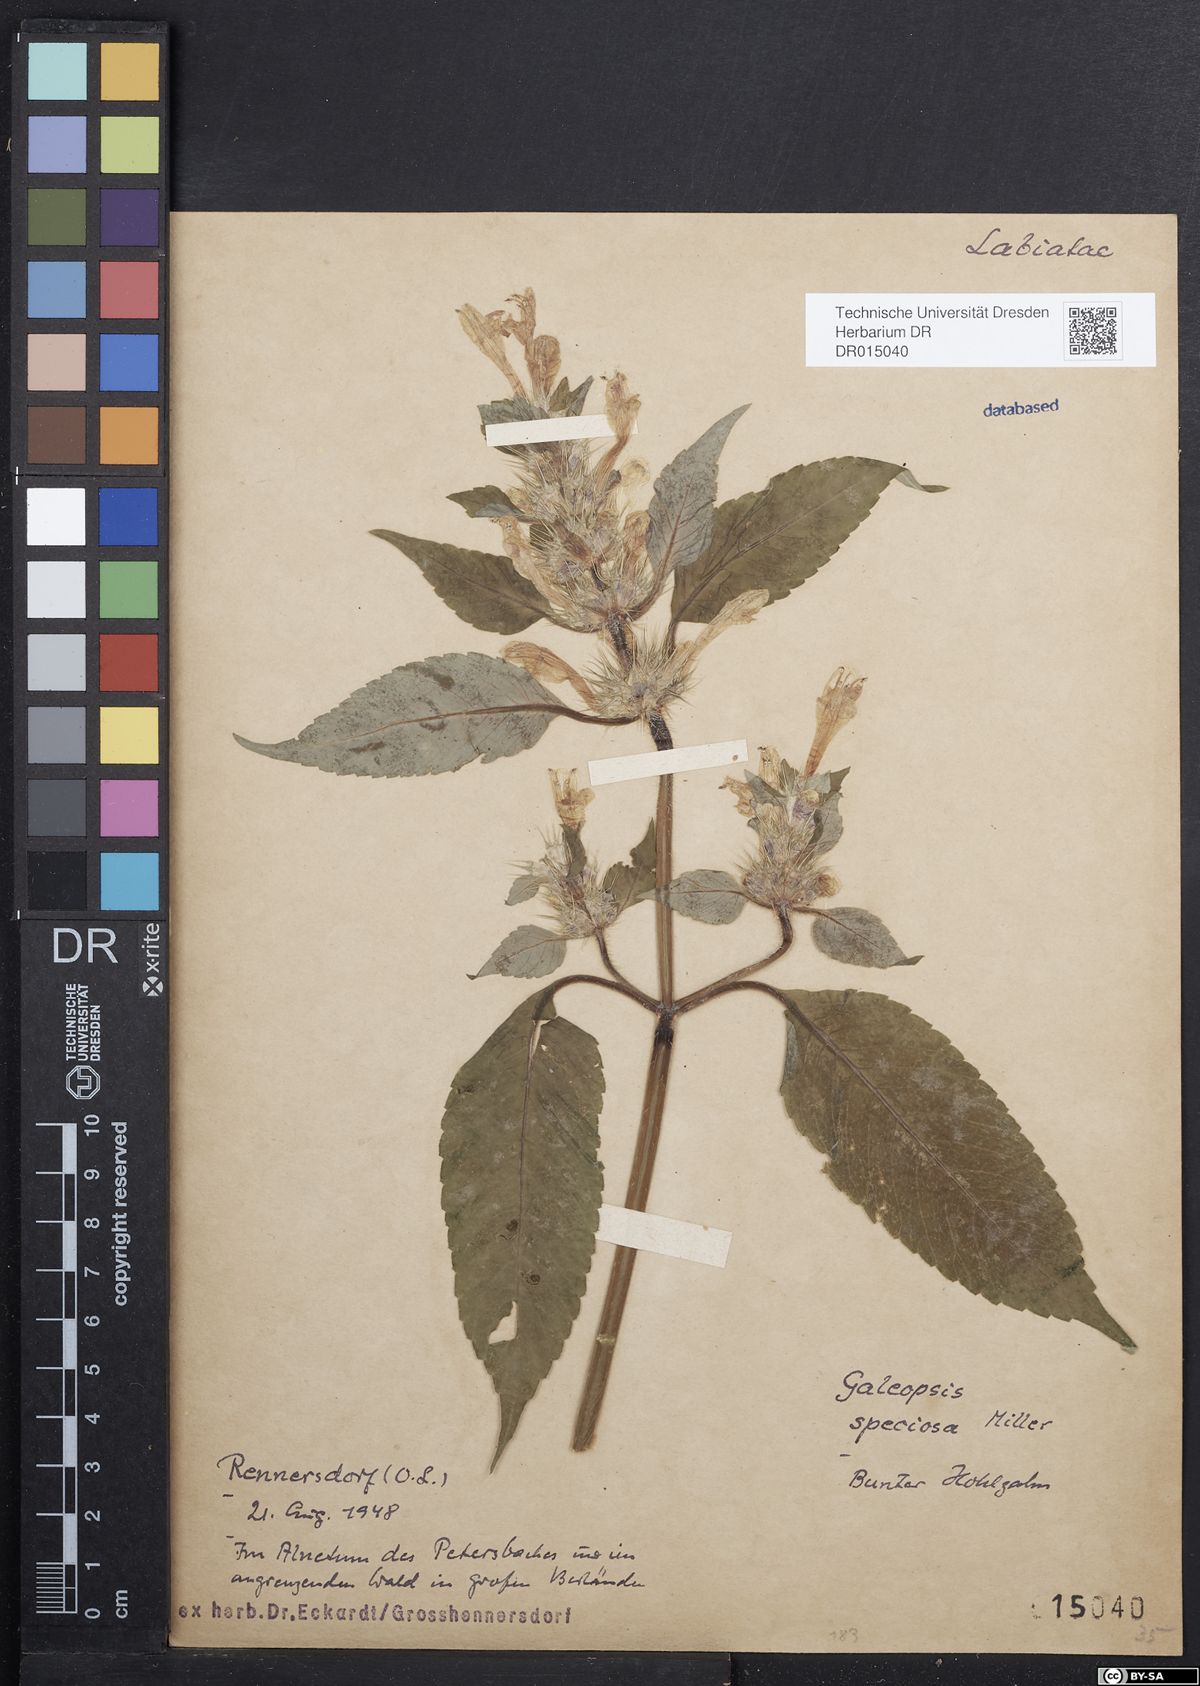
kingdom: Plantae
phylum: Tracheophyta
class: Magnoliopsida
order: Lamiales
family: Lamiaceae
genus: Galeopsis
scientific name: Galeopsis speciosa
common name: Large-flowered hemp-nettle
